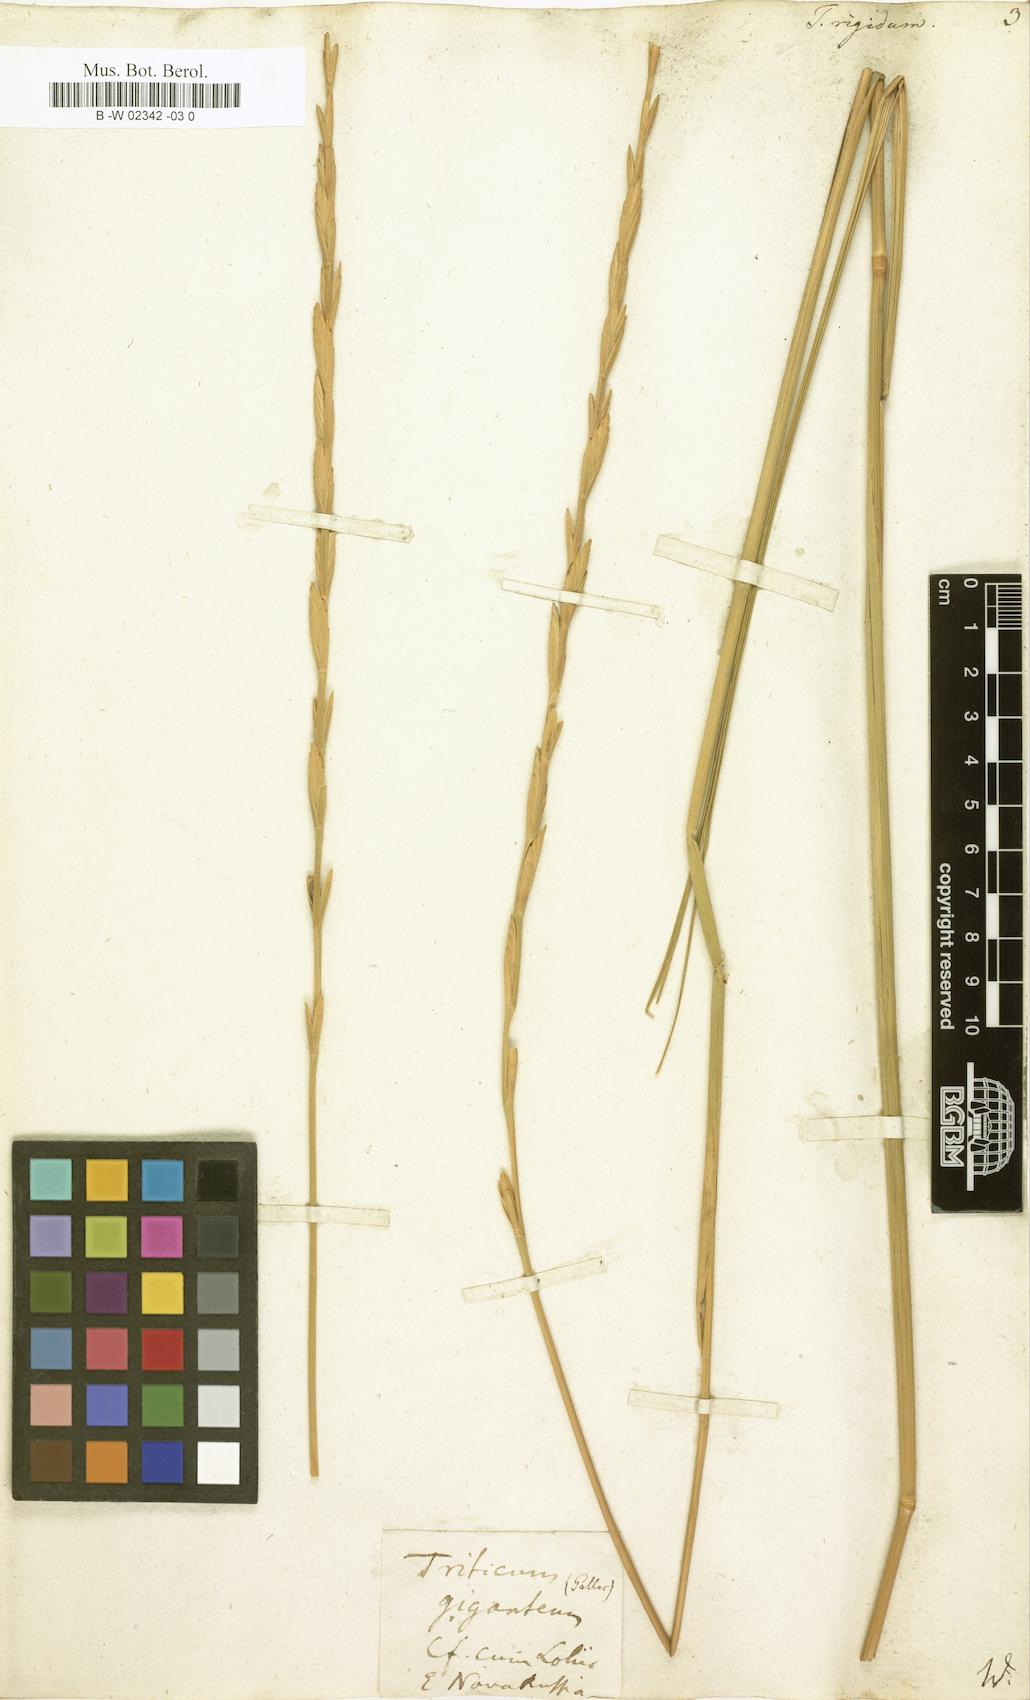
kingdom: Plantae
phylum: Tracheophyta
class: Liliopsida
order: Poales
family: Poaceae
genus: Thinopyrum
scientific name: Thinopyrum
